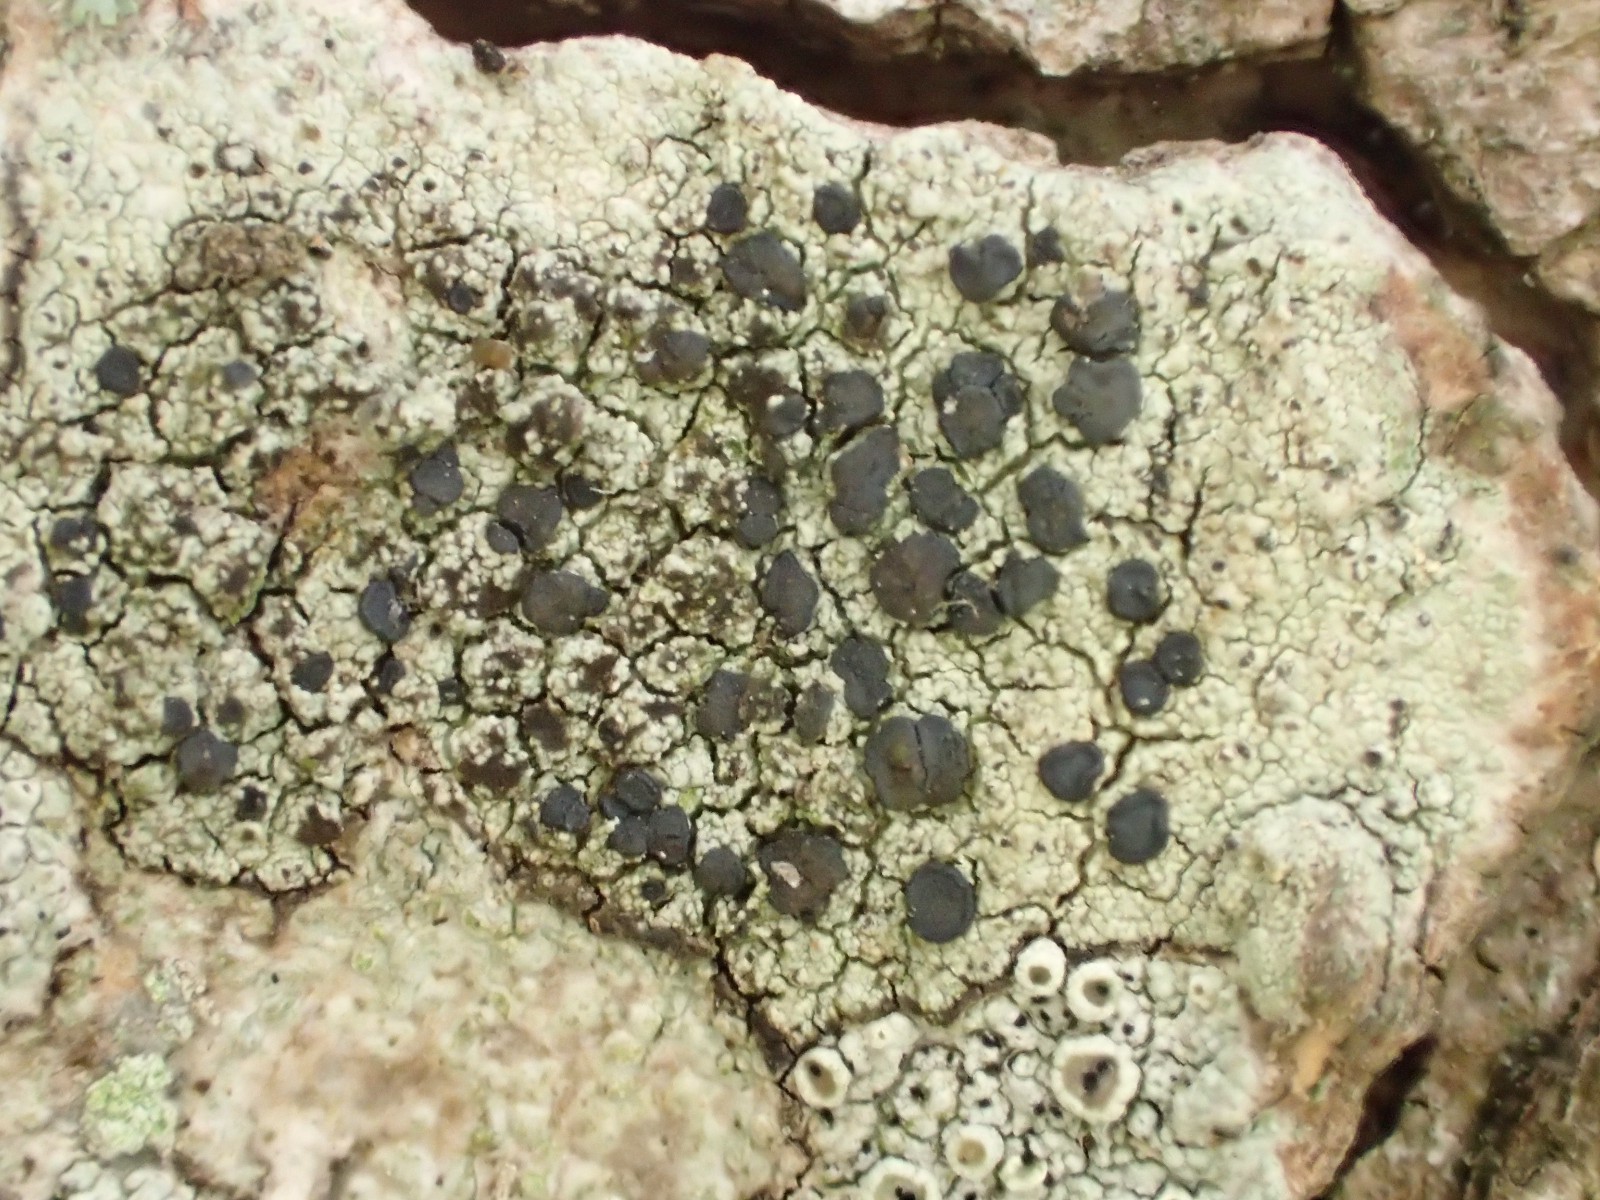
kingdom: Fungi
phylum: Ascomycota
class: Lecanoromycetes
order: Lecanorales
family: Lecanoraceae
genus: Lecidella
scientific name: Lecidella elaeochroma
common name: grågrøn skivelav
